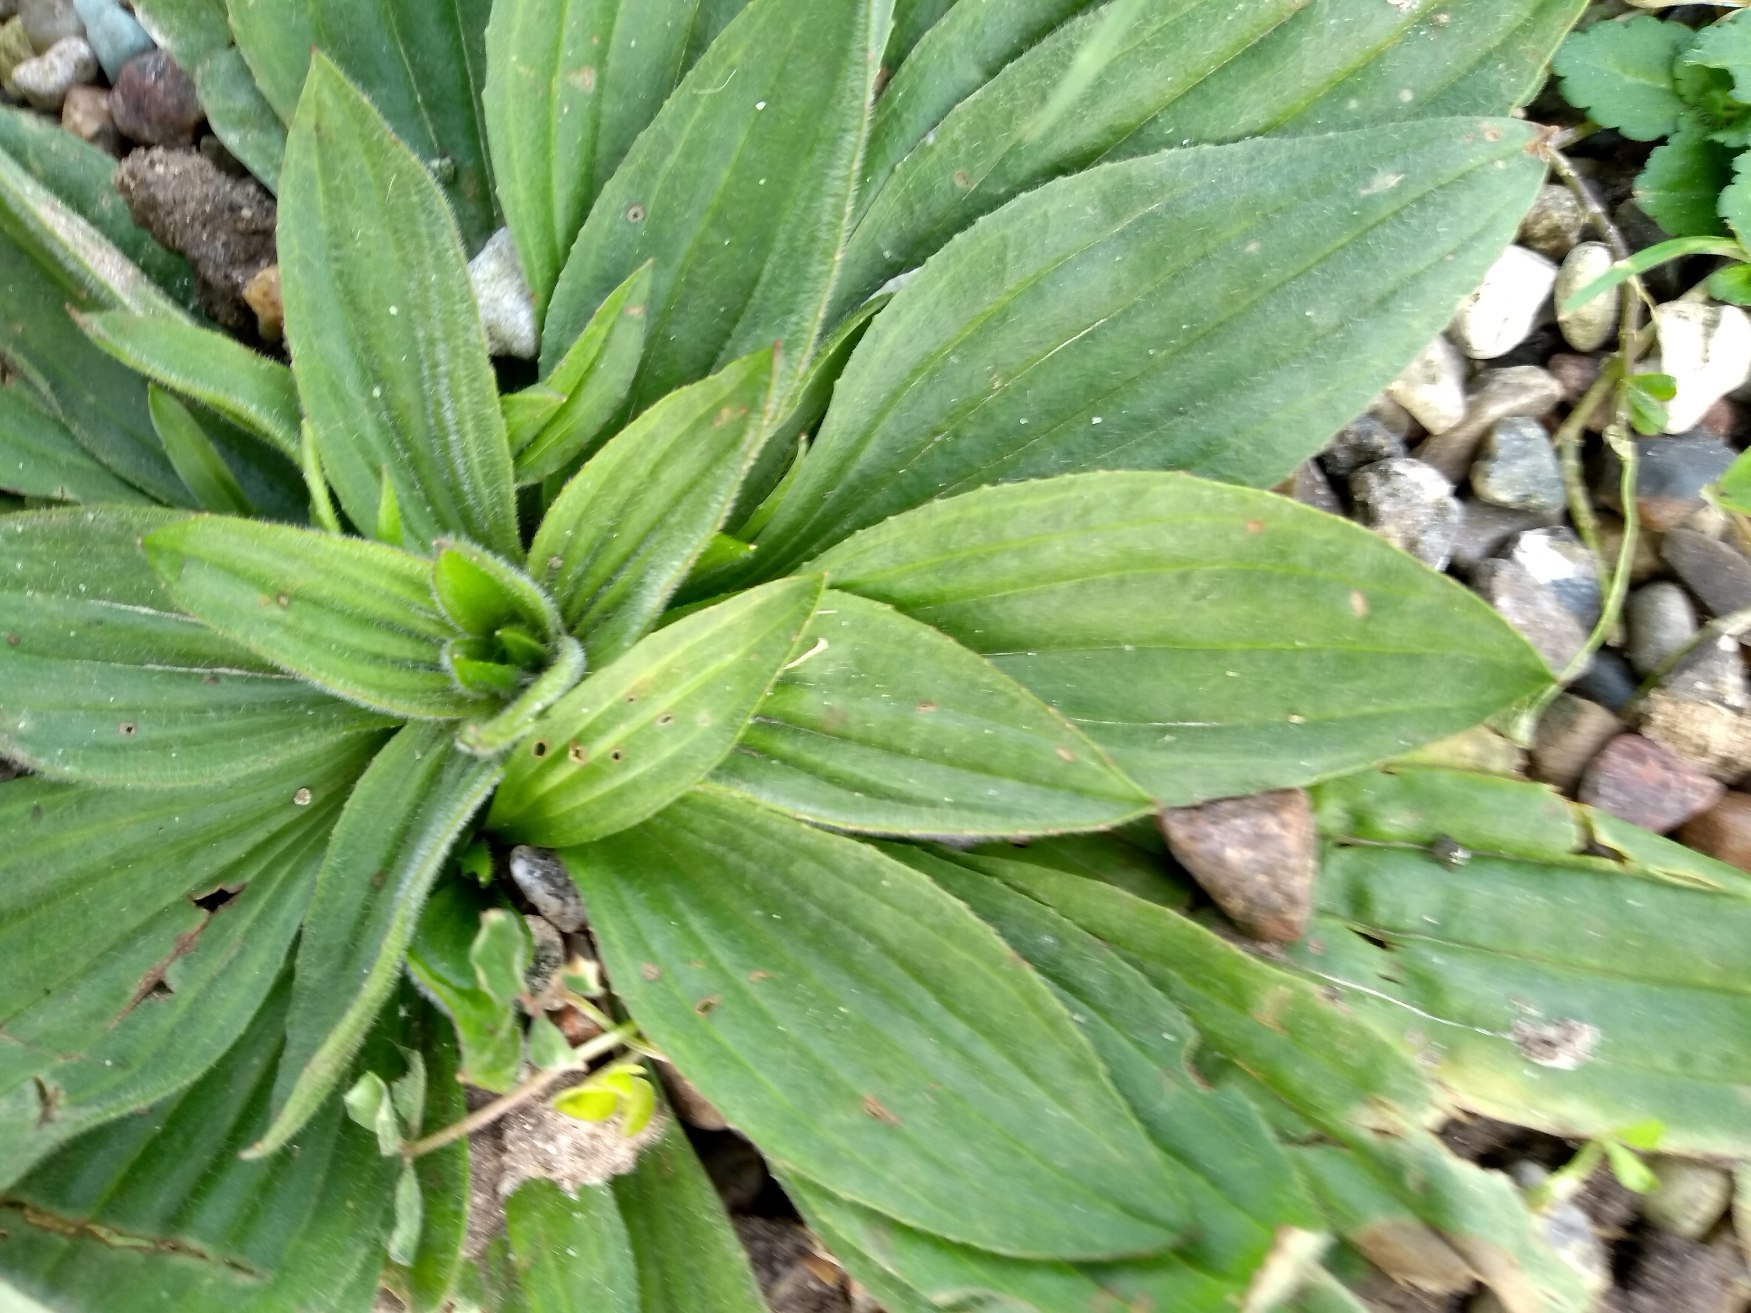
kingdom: Plantae
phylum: Tracheophyta
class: Magnoliopsida
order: Lamiales
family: Plantaginaceae
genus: Plantago
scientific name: Plantago lanceolata
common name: Lancet-vejbred
